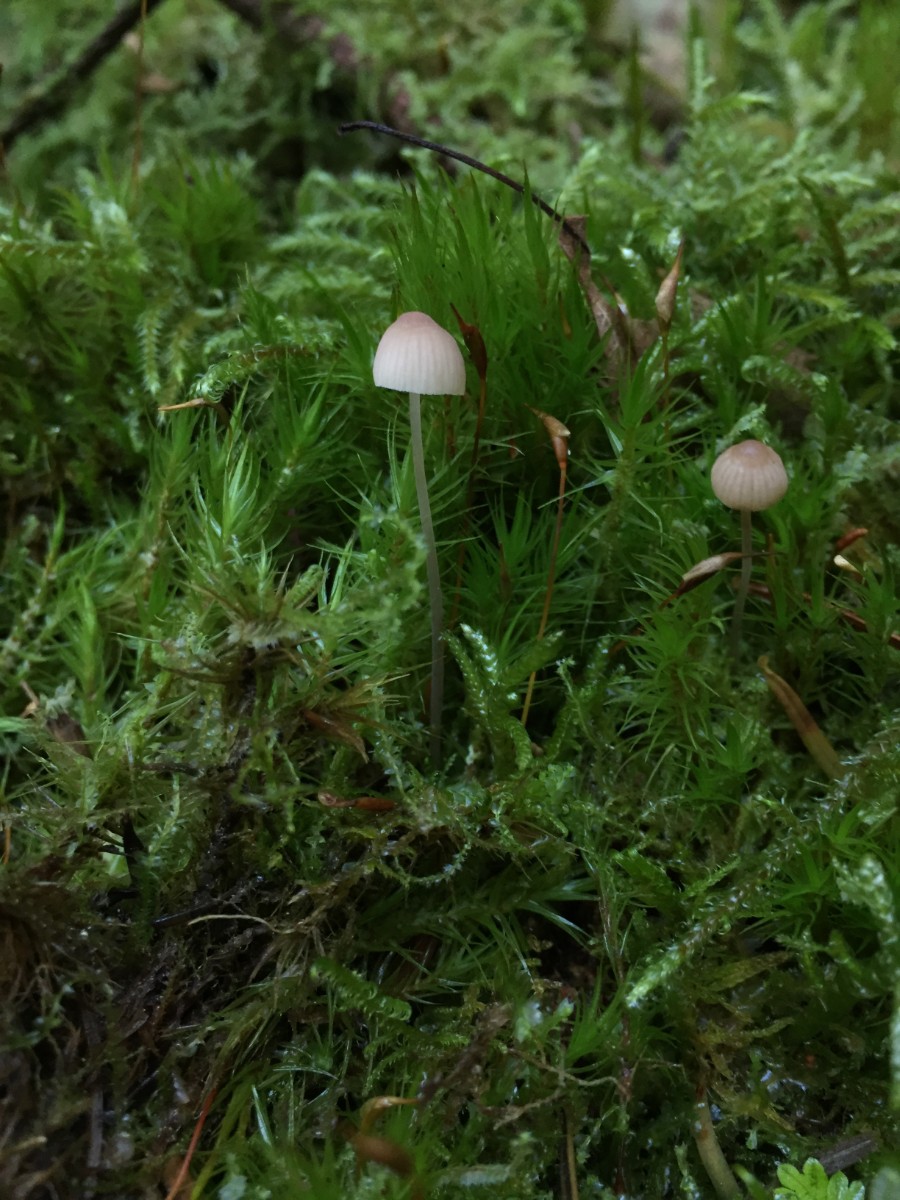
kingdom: Fungi
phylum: Basidiomycota
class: Agaricomycetes
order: Agaricales
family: Mycenaceae
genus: Mycena
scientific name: Mycena metata
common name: rødlig huesvamp
